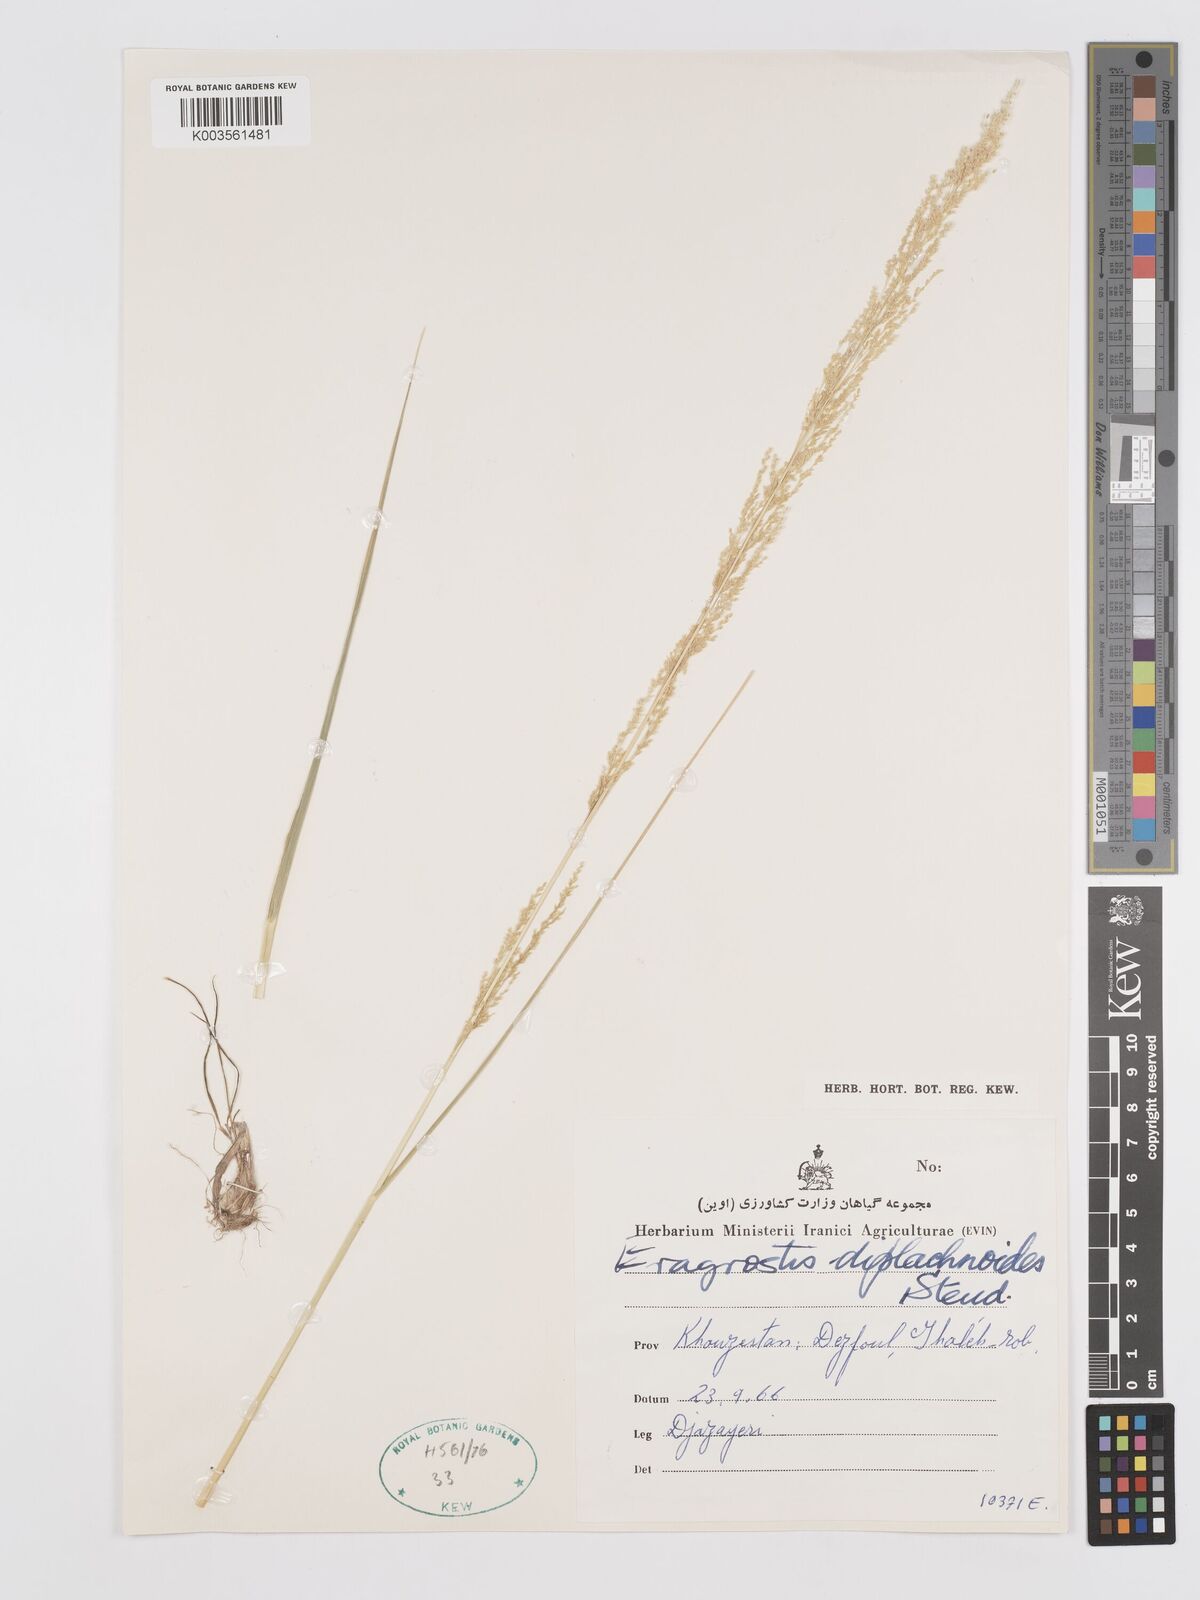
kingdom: Plantae
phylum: Tracheophyta
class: Liliopsida
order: Poales
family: Poaceae
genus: Eragrostis
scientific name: Eragrostis japonica
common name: Pond lovegrass
